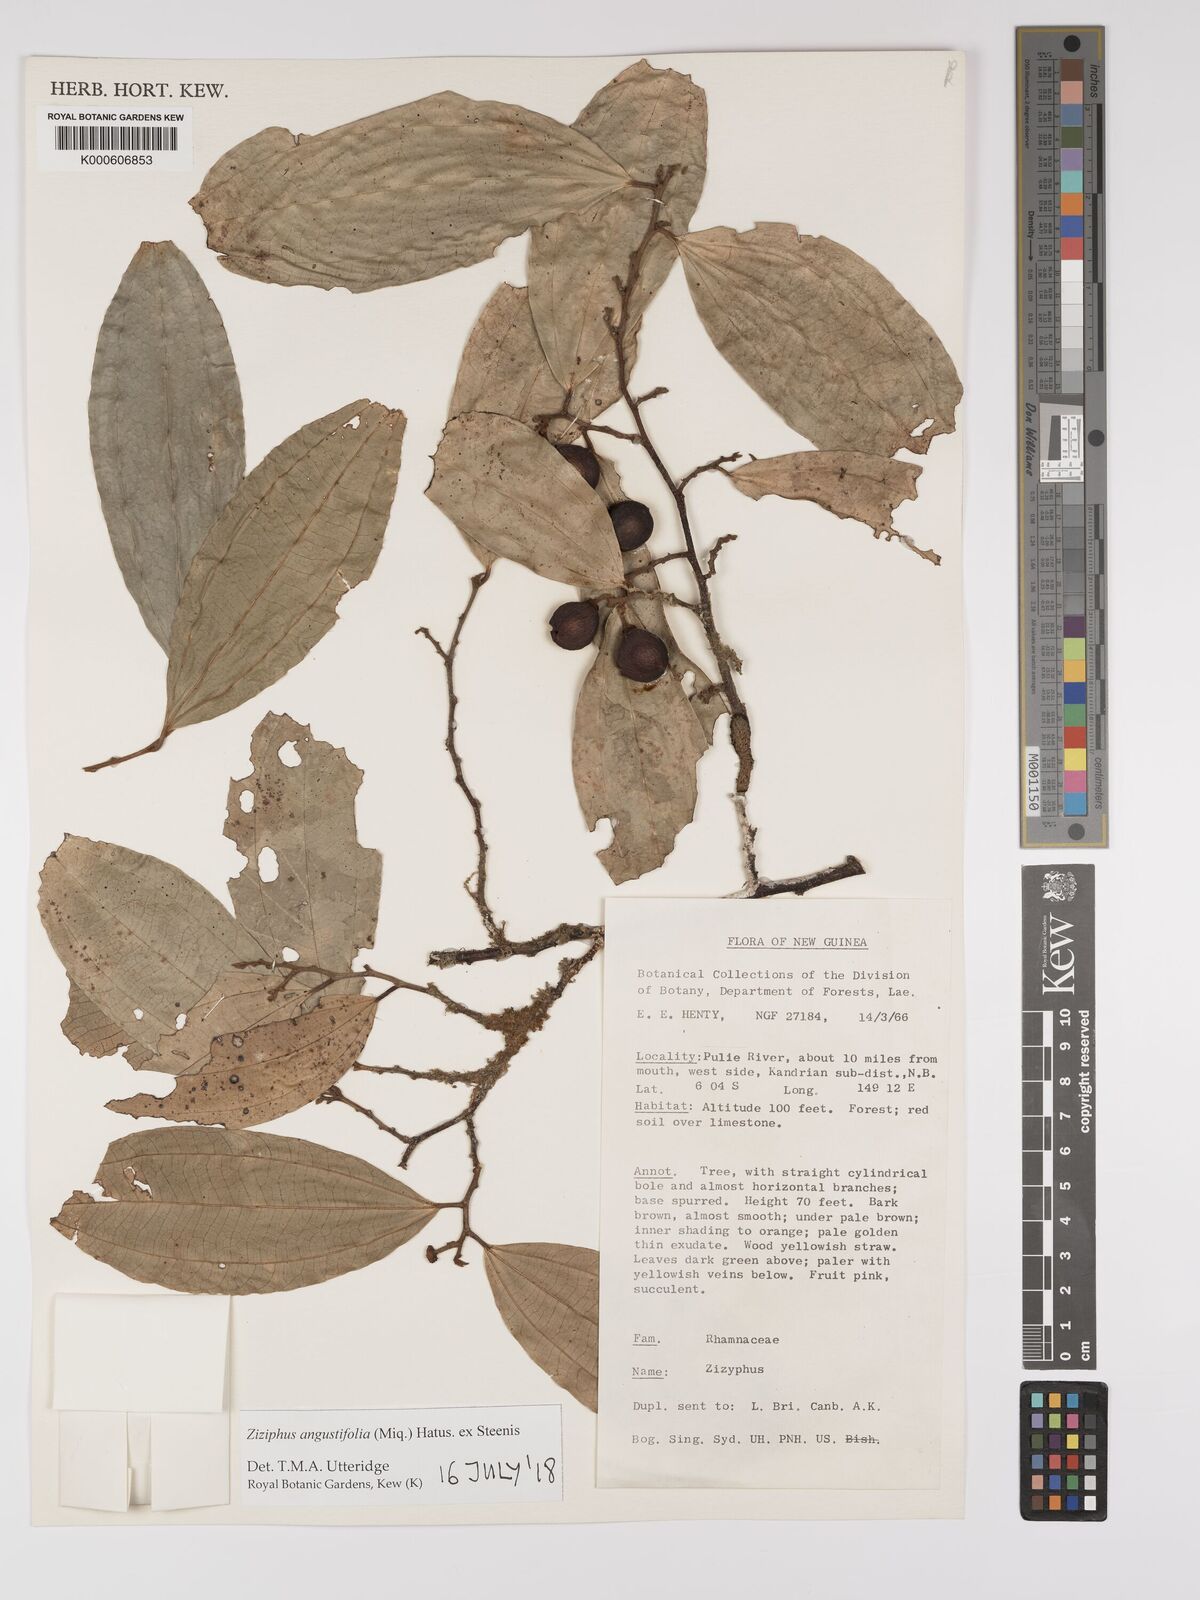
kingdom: Plantae
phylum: Tracheophyta
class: Magnoliopsida
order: Rosales
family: Rhamnaceae
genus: Ziziphus
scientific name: Ziziphus angustifolia
